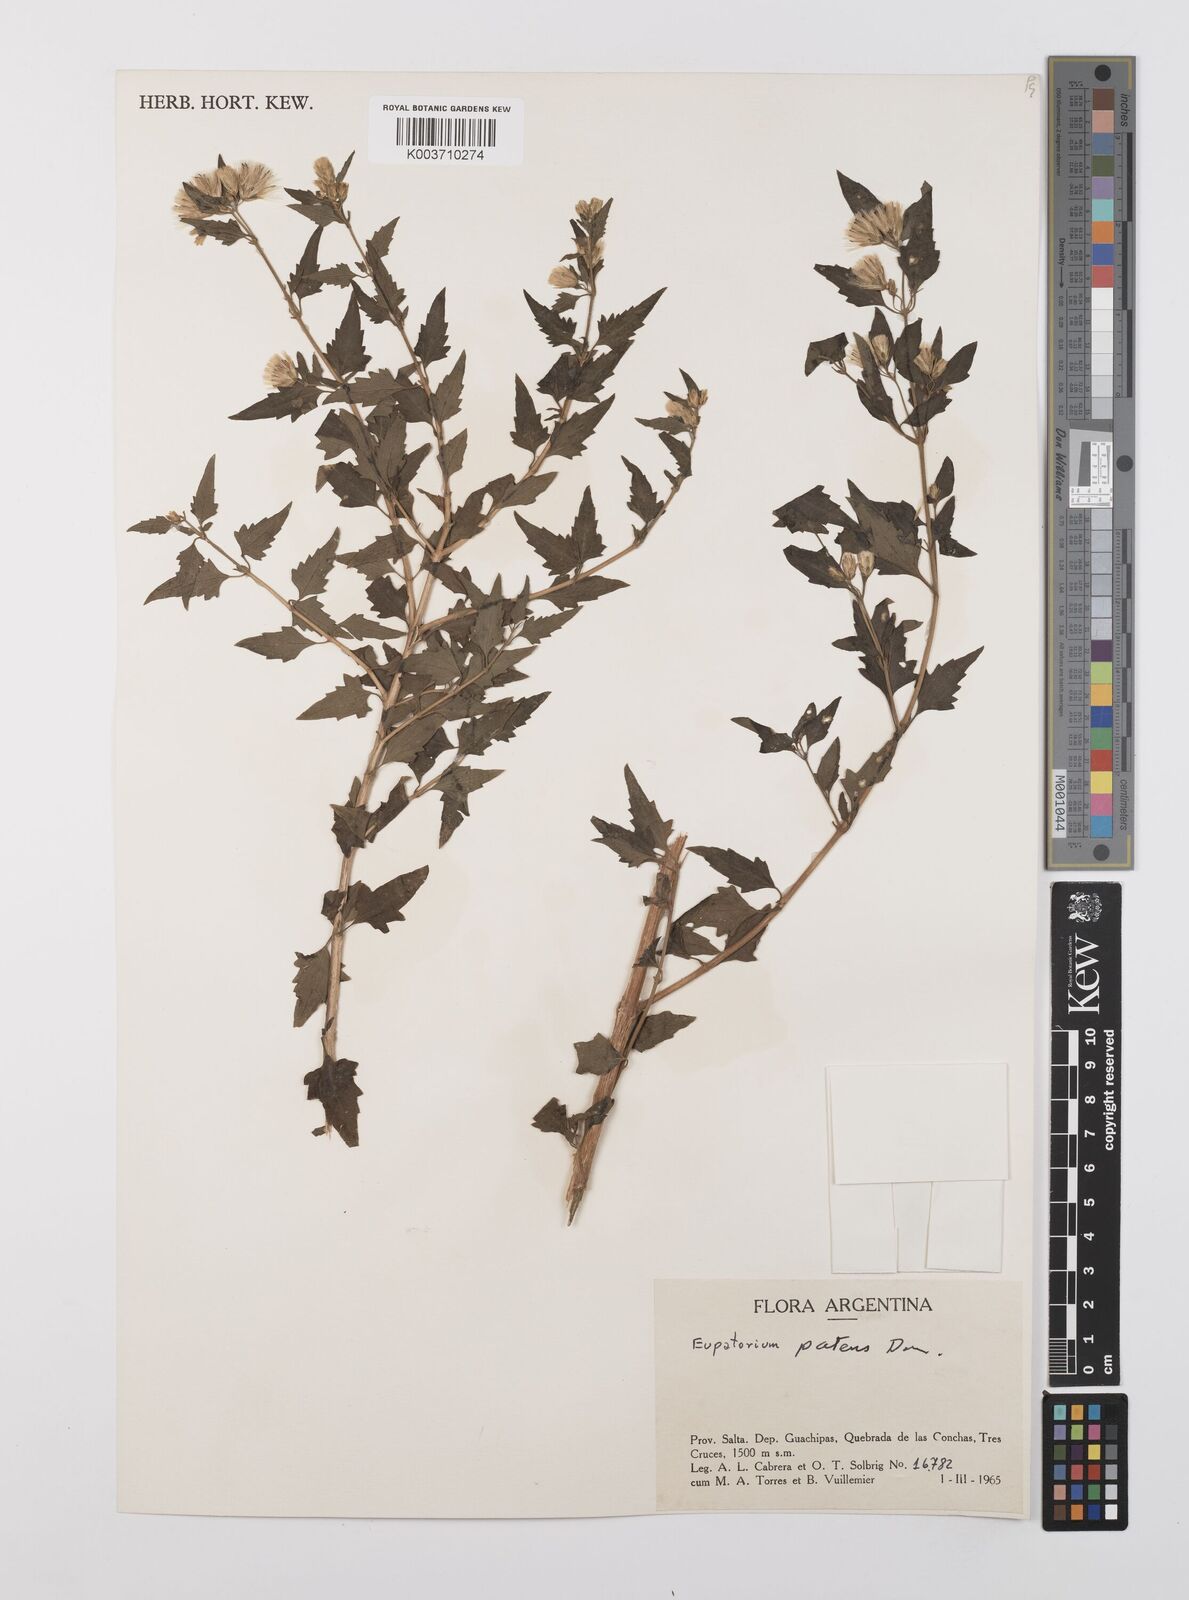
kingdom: Plantae
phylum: Tracheophyta
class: Magnoliopsida
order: Asterales
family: Asteraceae
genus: Austrobrickellia
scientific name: Austrobrickellia patens
